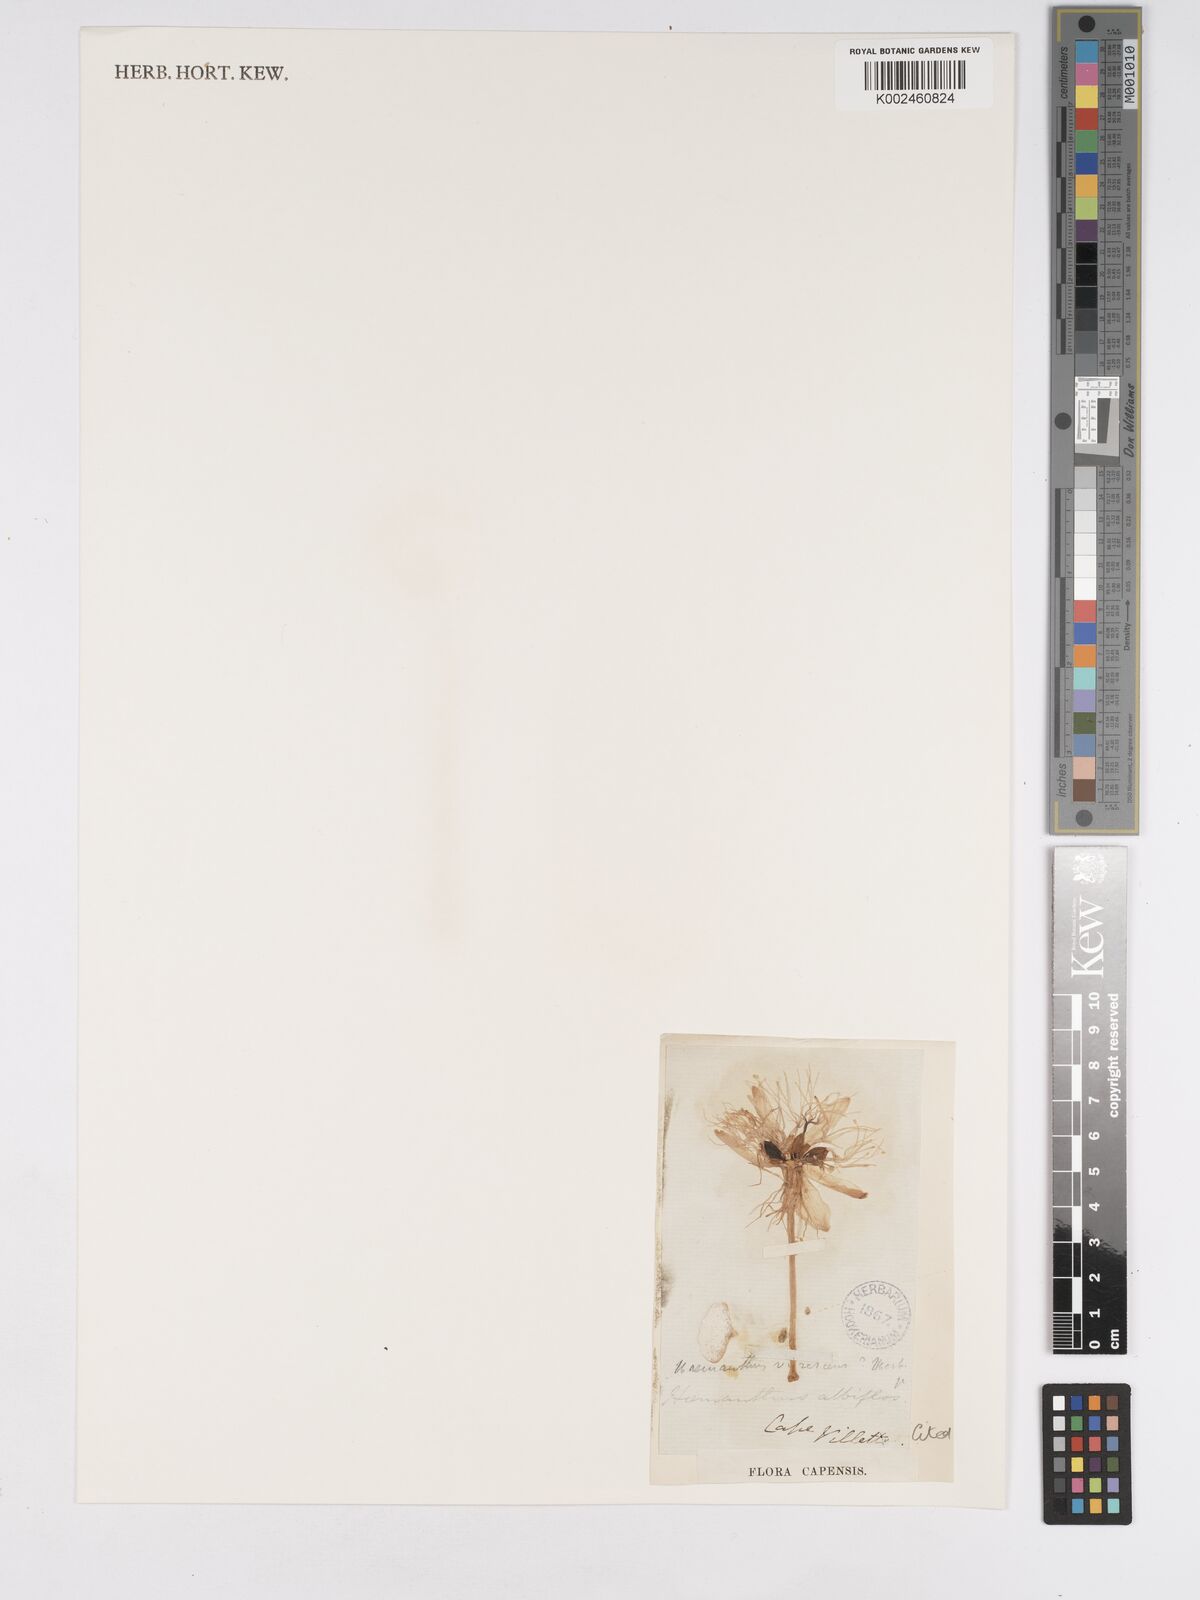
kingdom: Plantae
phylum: Tracheophyta
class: Liliopsida
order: Asparagales
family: Amaryllidaceae
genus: Haemanthus
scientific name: Haemanthus albiflos
